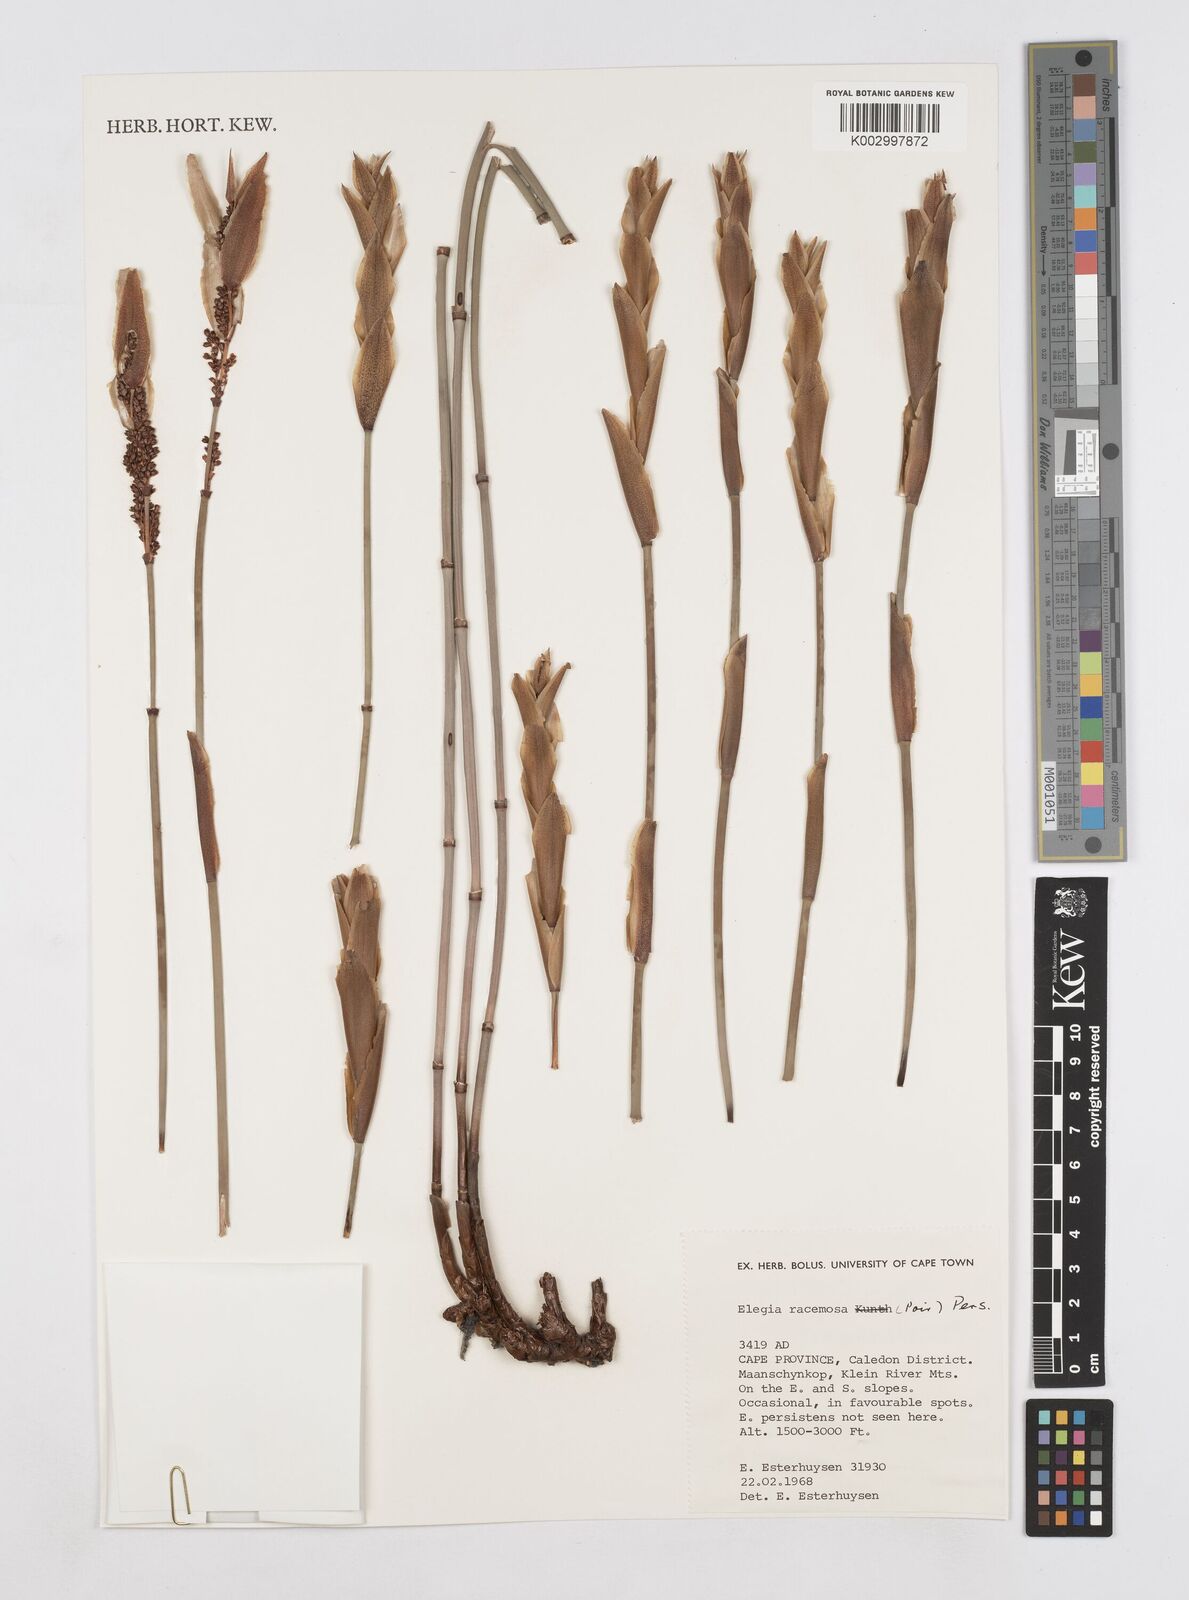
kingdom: Plantae
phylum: Tracheophyta
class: Liliopsida
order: Poales
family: Restionaceae
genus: Elegia
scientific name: Elegia racemosa
